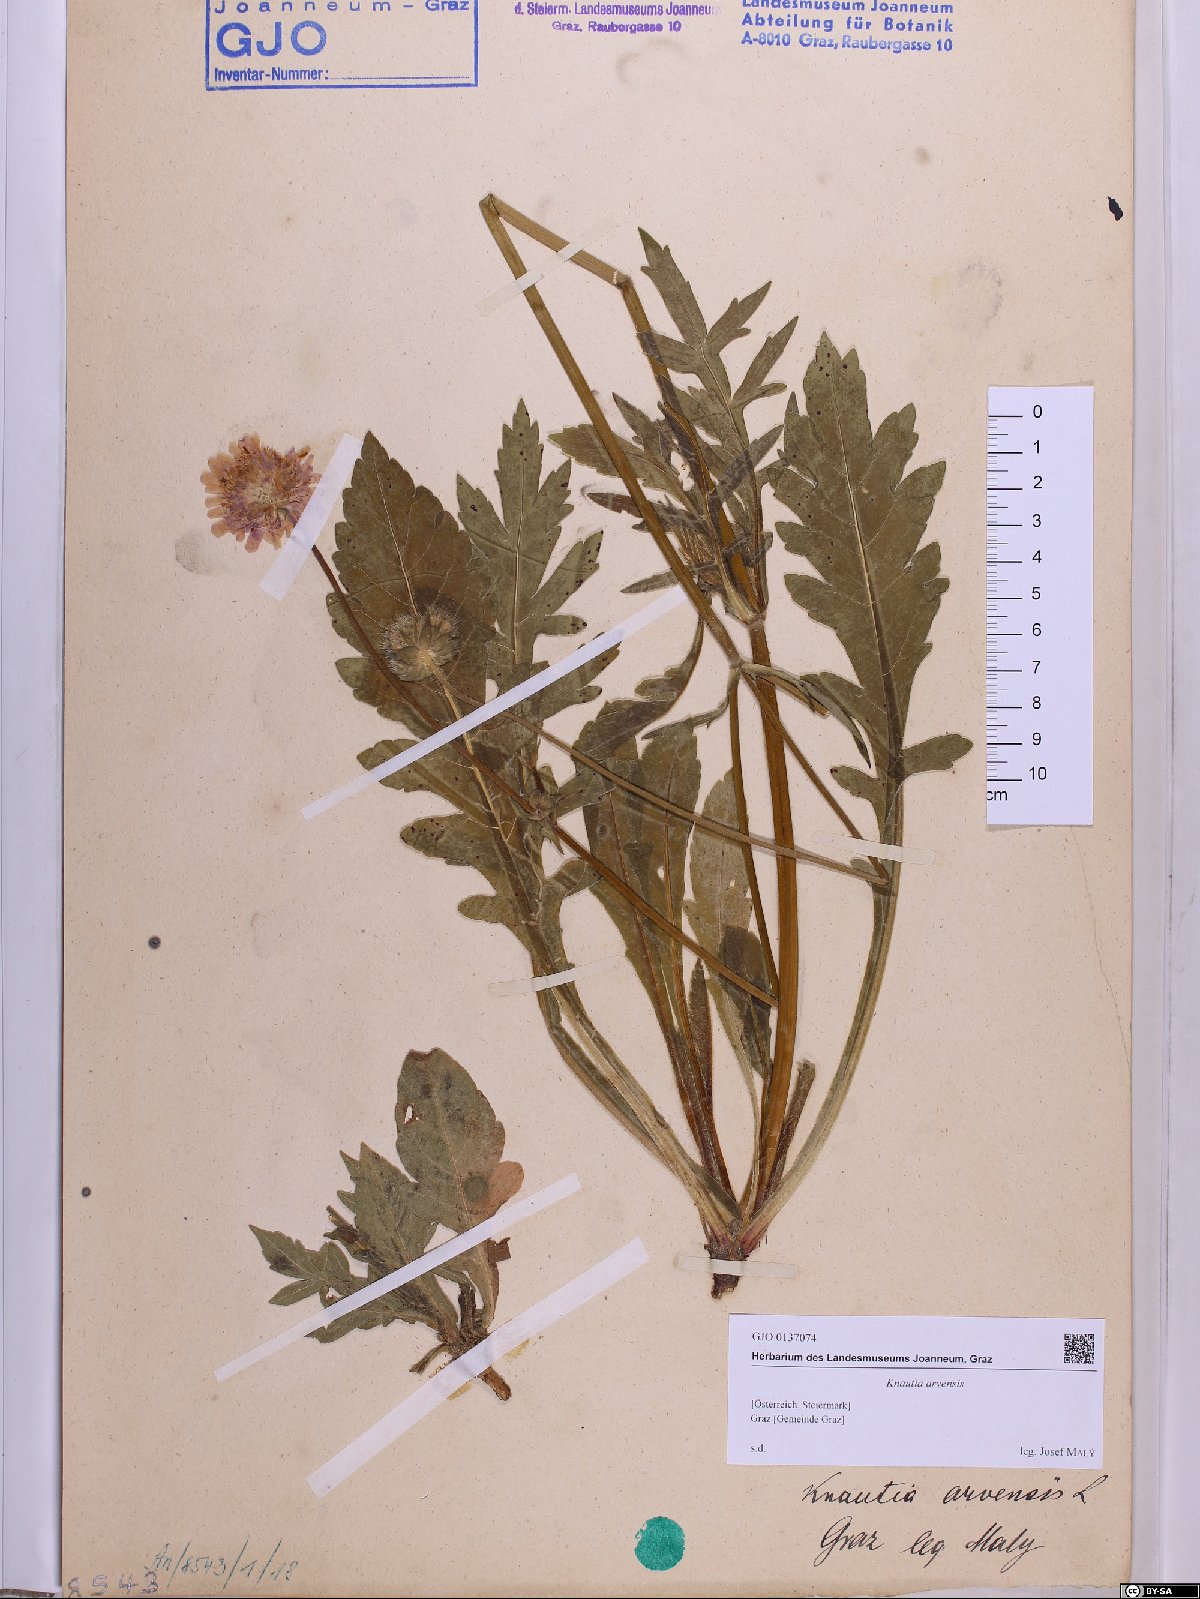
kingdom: Plantae
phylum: Tracheophyta
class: Magnoliopsida
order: Dipsacales
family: Caprifoliaceae
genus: Knautia
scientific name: Knautia arvensis
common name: Field scabiosa
